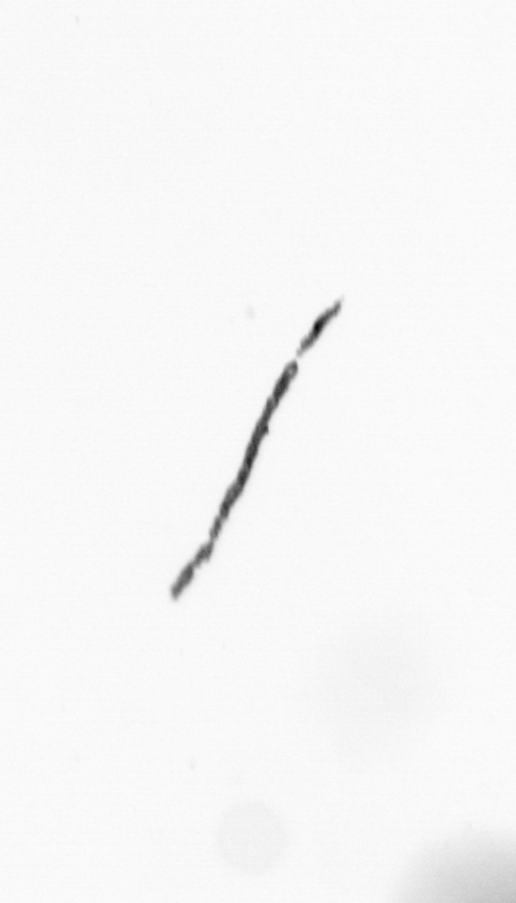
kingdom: Bacteria
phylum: Cyanobacteria
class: Cyanobacteriia
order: Cyanobacteriales
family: Microcoleaceae
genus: Trichodesmium
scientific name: Trichodesmium
